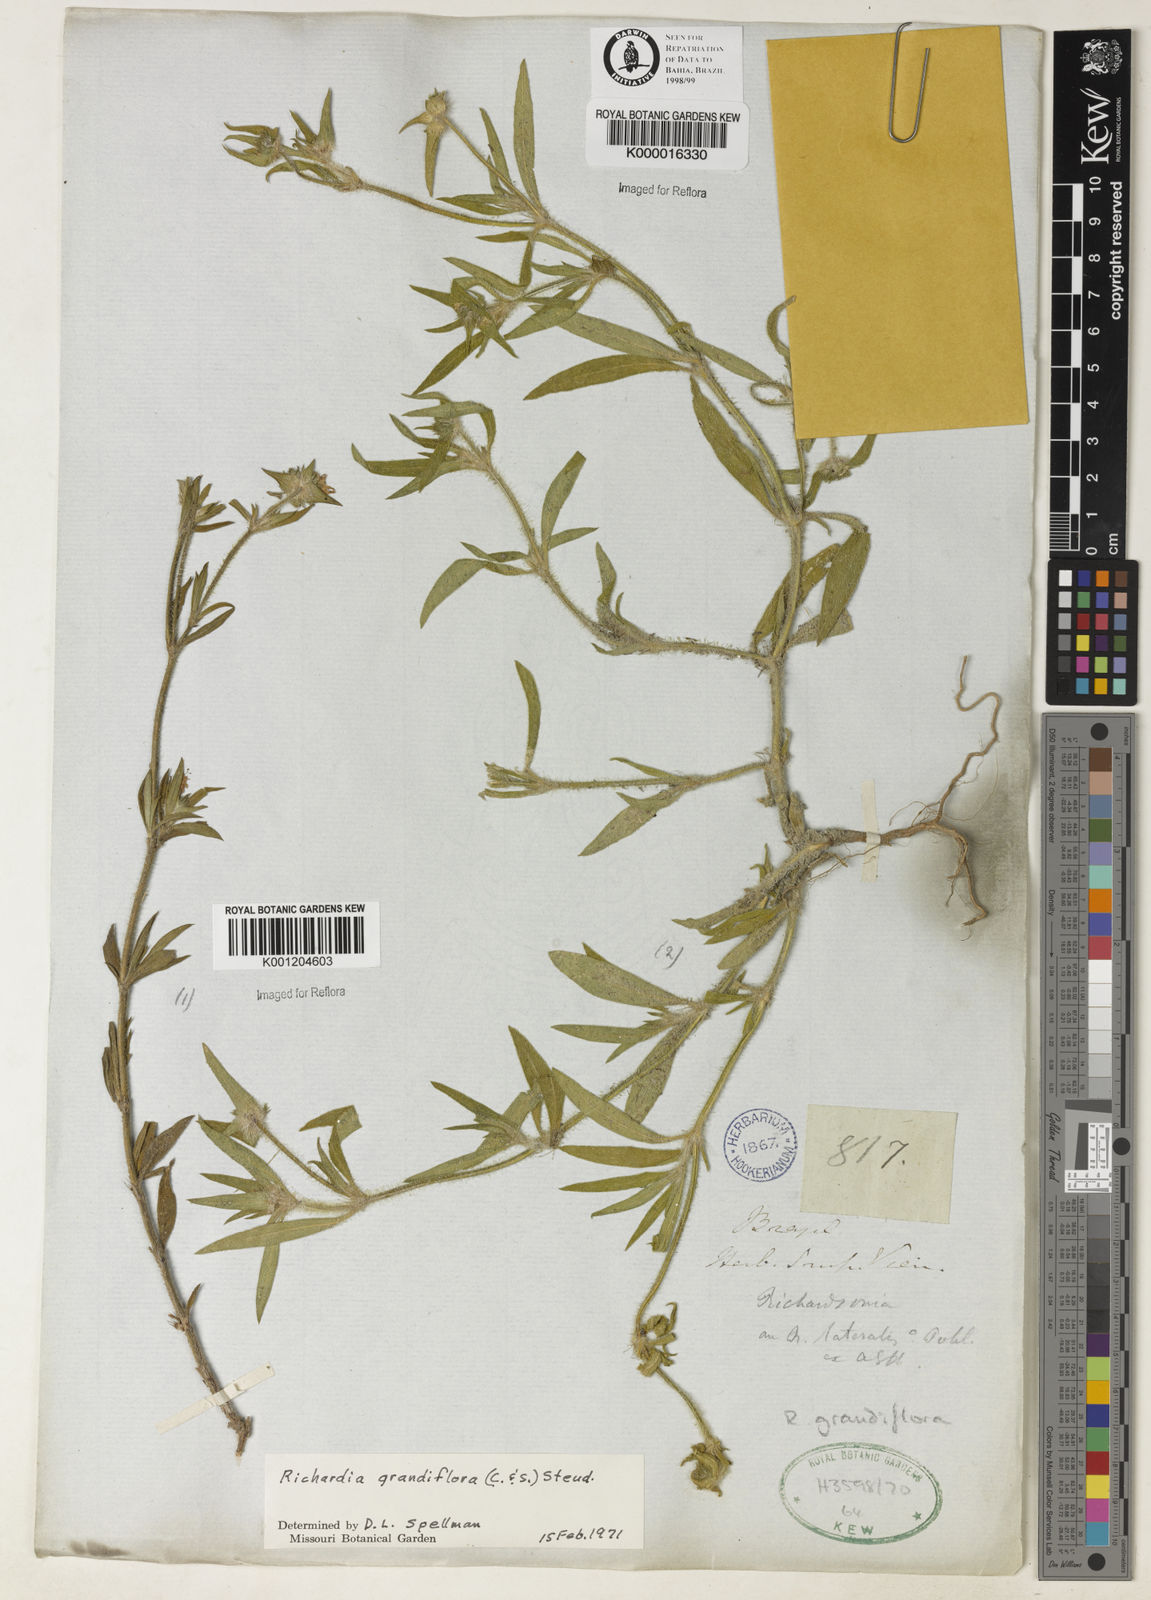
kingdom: Plantae
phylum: Tracheophyta
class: Magnoliopsida
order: Gentianales
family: Rubiaceae
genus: Richardia
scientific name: Richardia grandiflora
